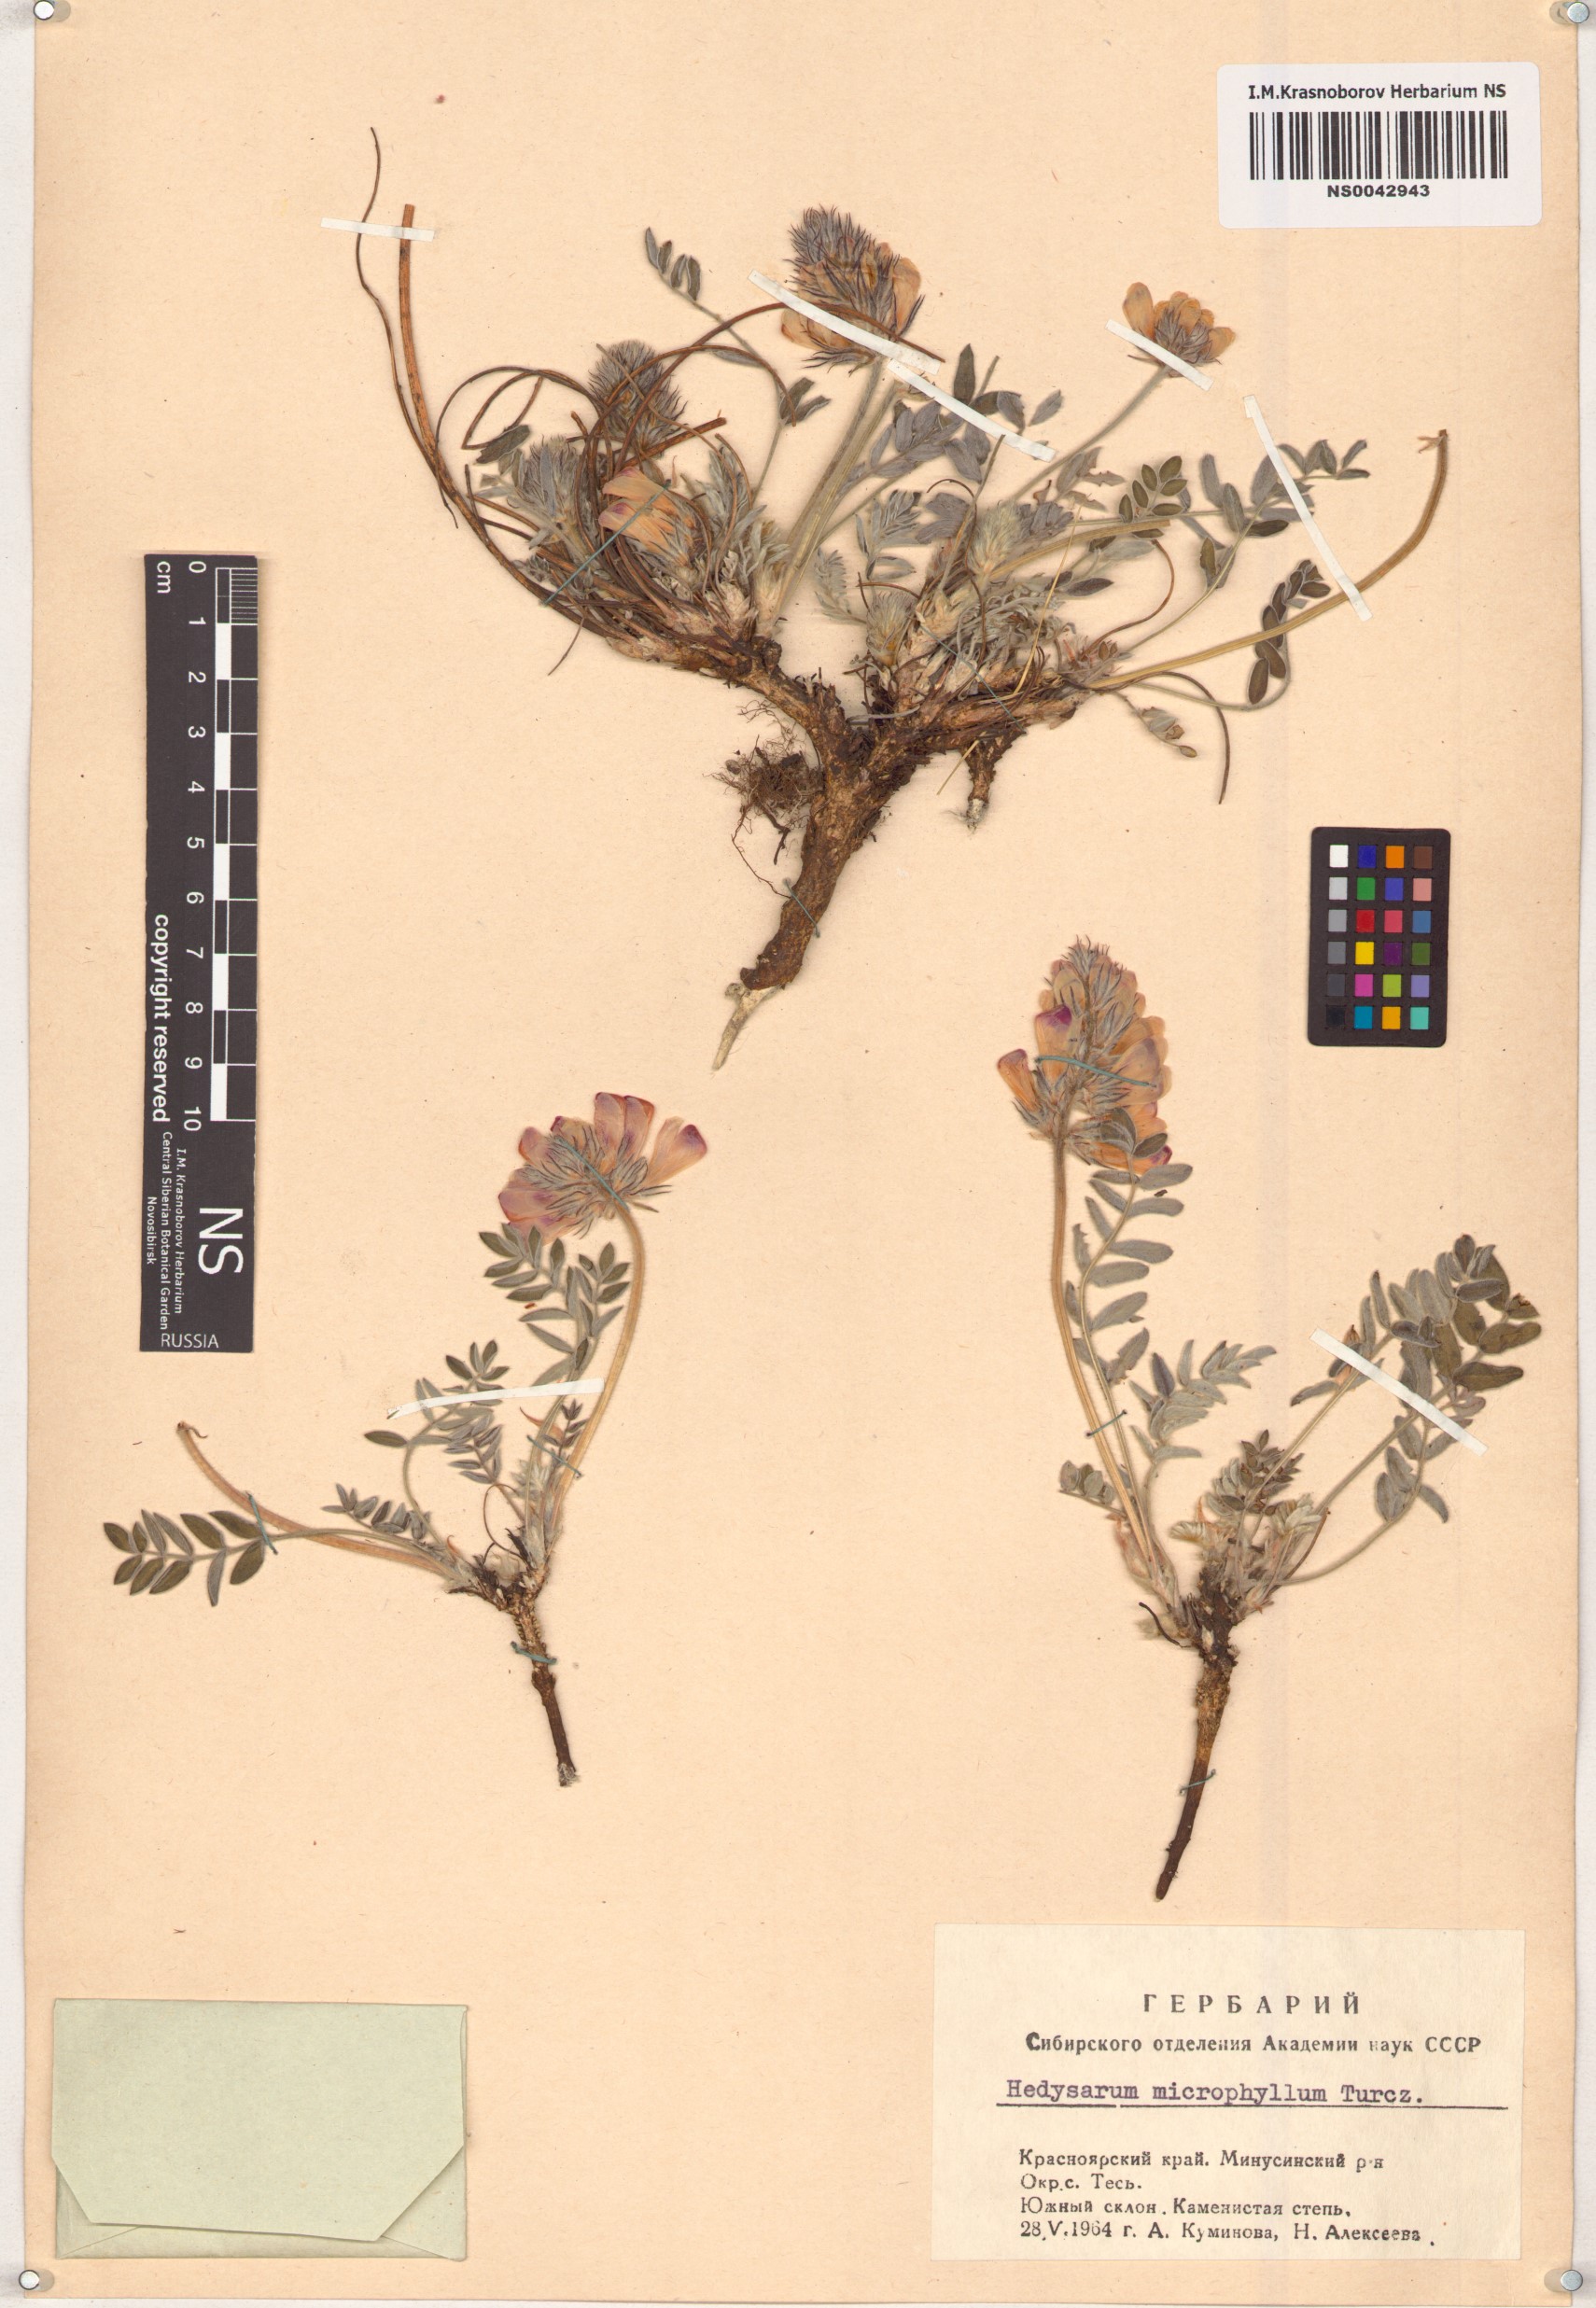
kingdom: Plantae
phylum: Tracheophyta
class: Magnoliopsida
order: Fabales
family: Fabaceae
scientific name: Fabaceae
